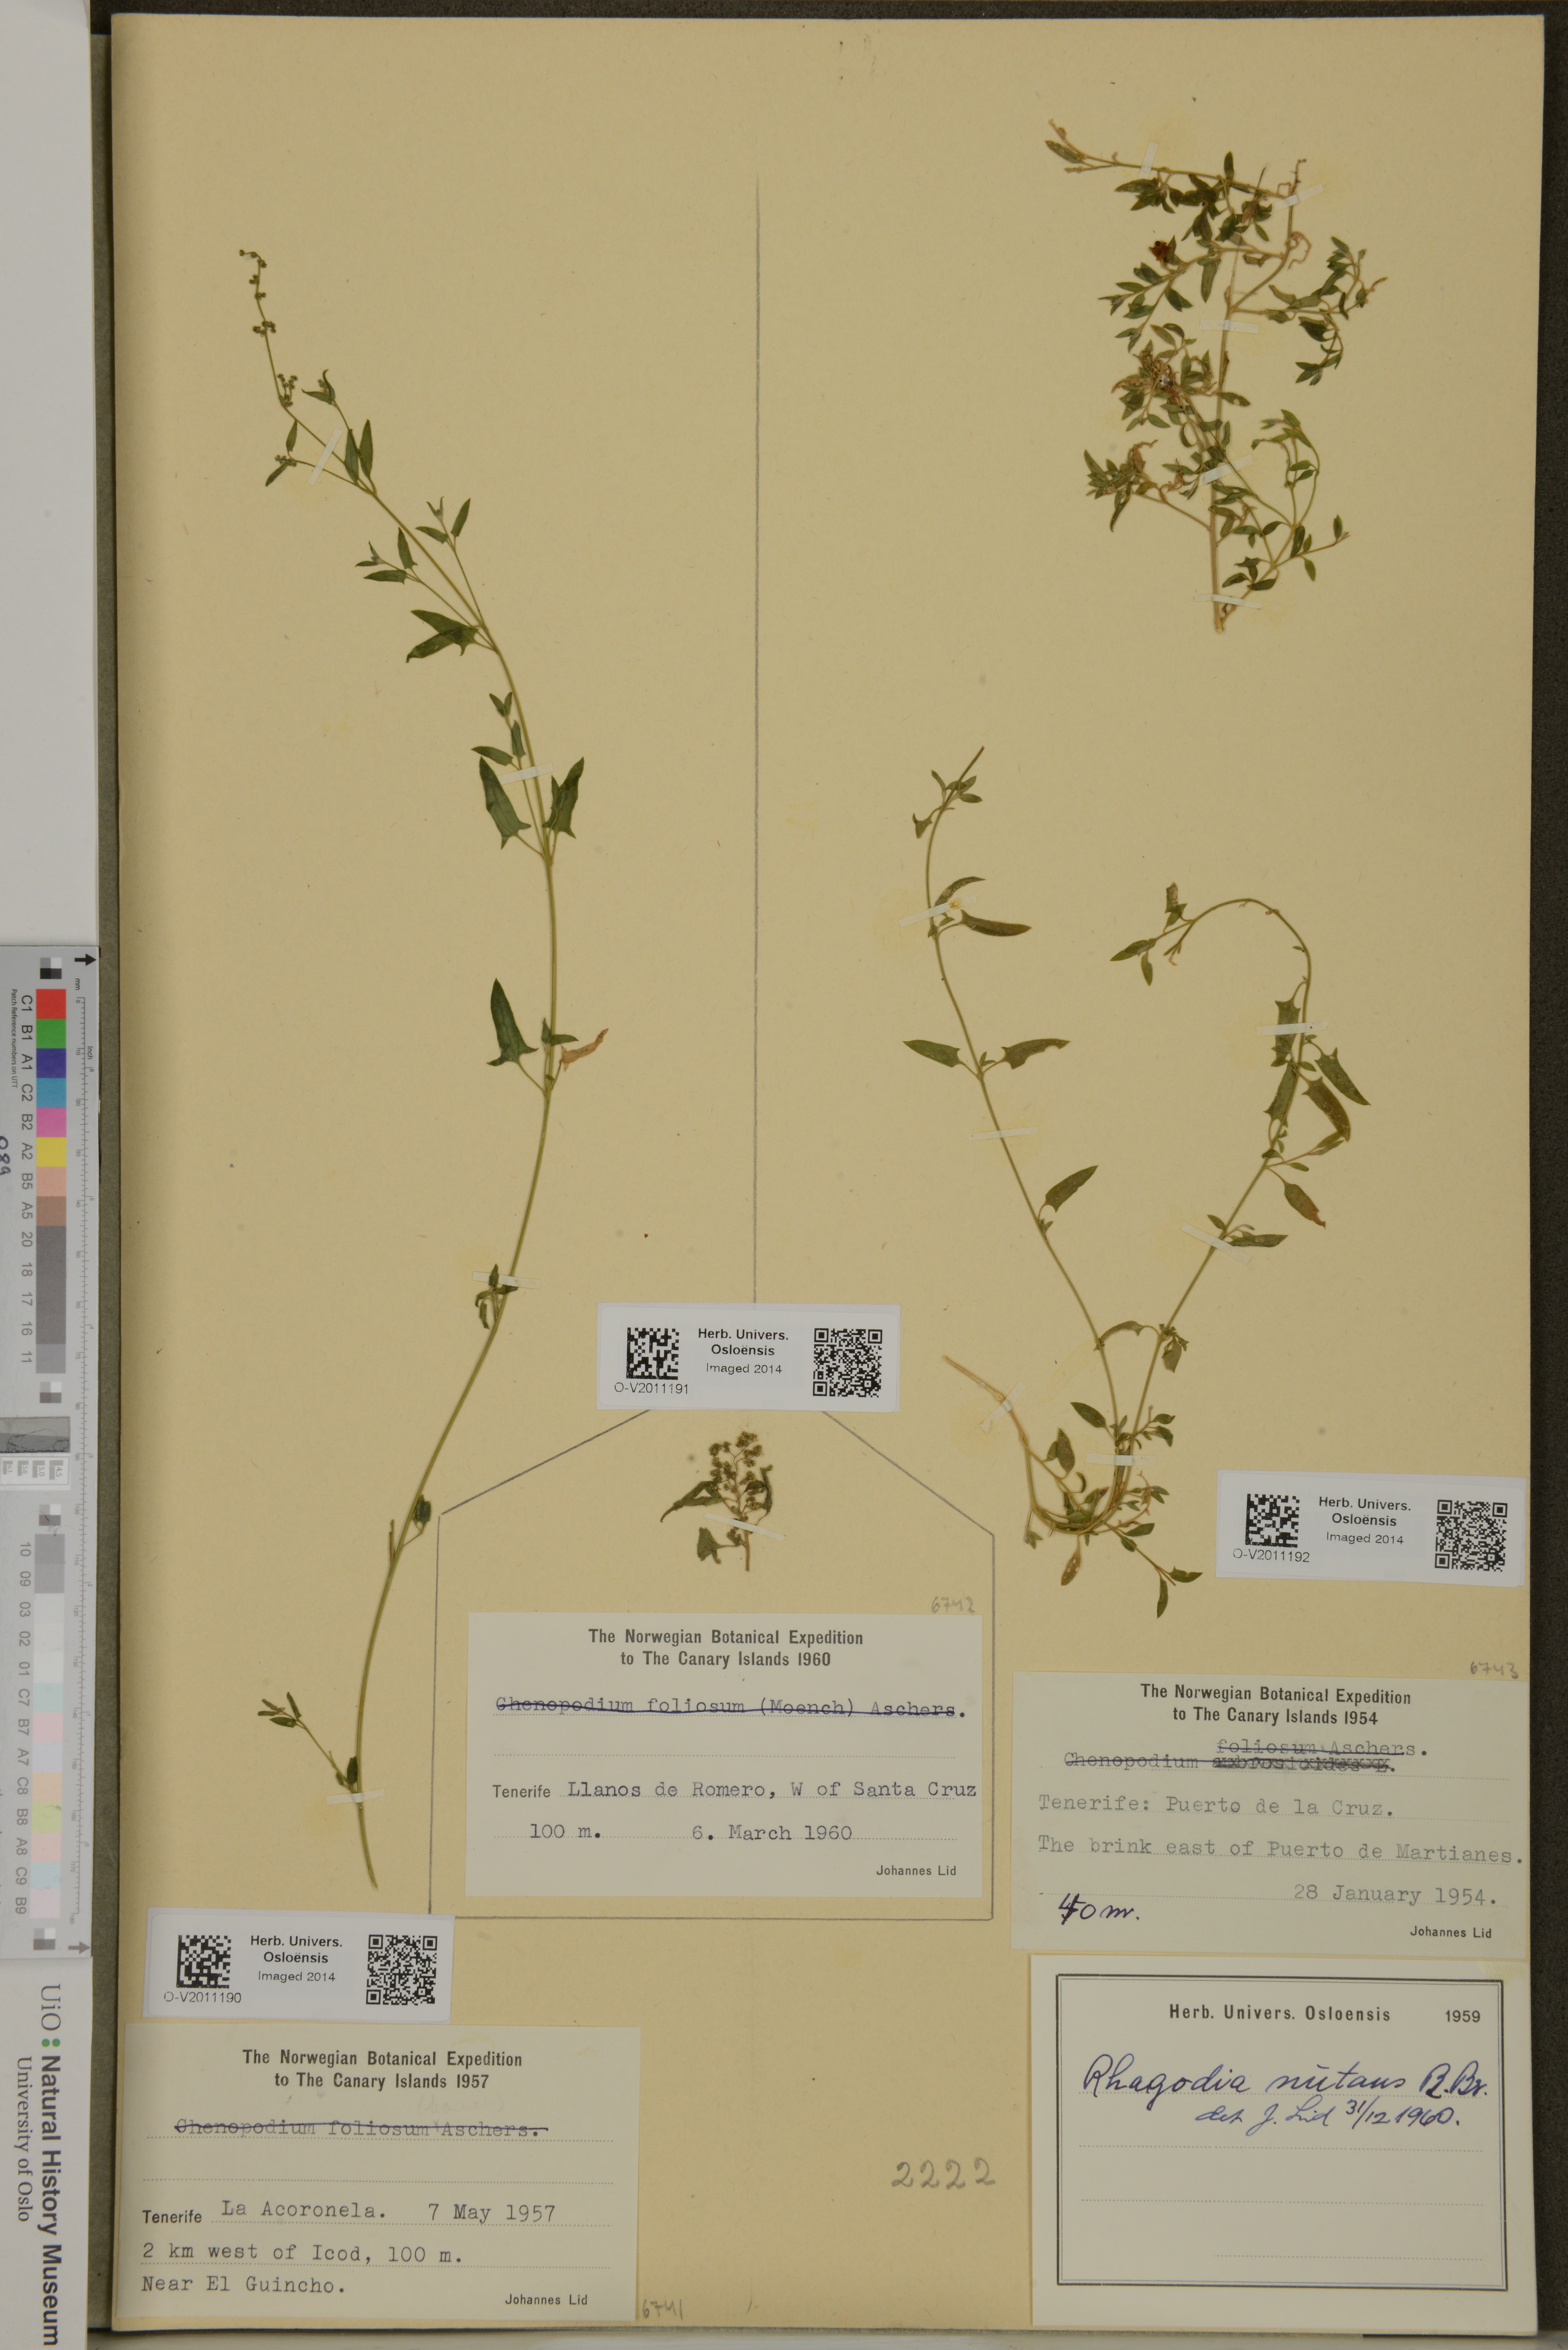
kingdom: Plantae
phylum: Tracheophyta
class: Magnoliopsida
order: Caryophyllales
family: Amaranthaceae
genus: Chenopodium
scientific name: Chenopodium nutans
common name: Climbing-saltbush
